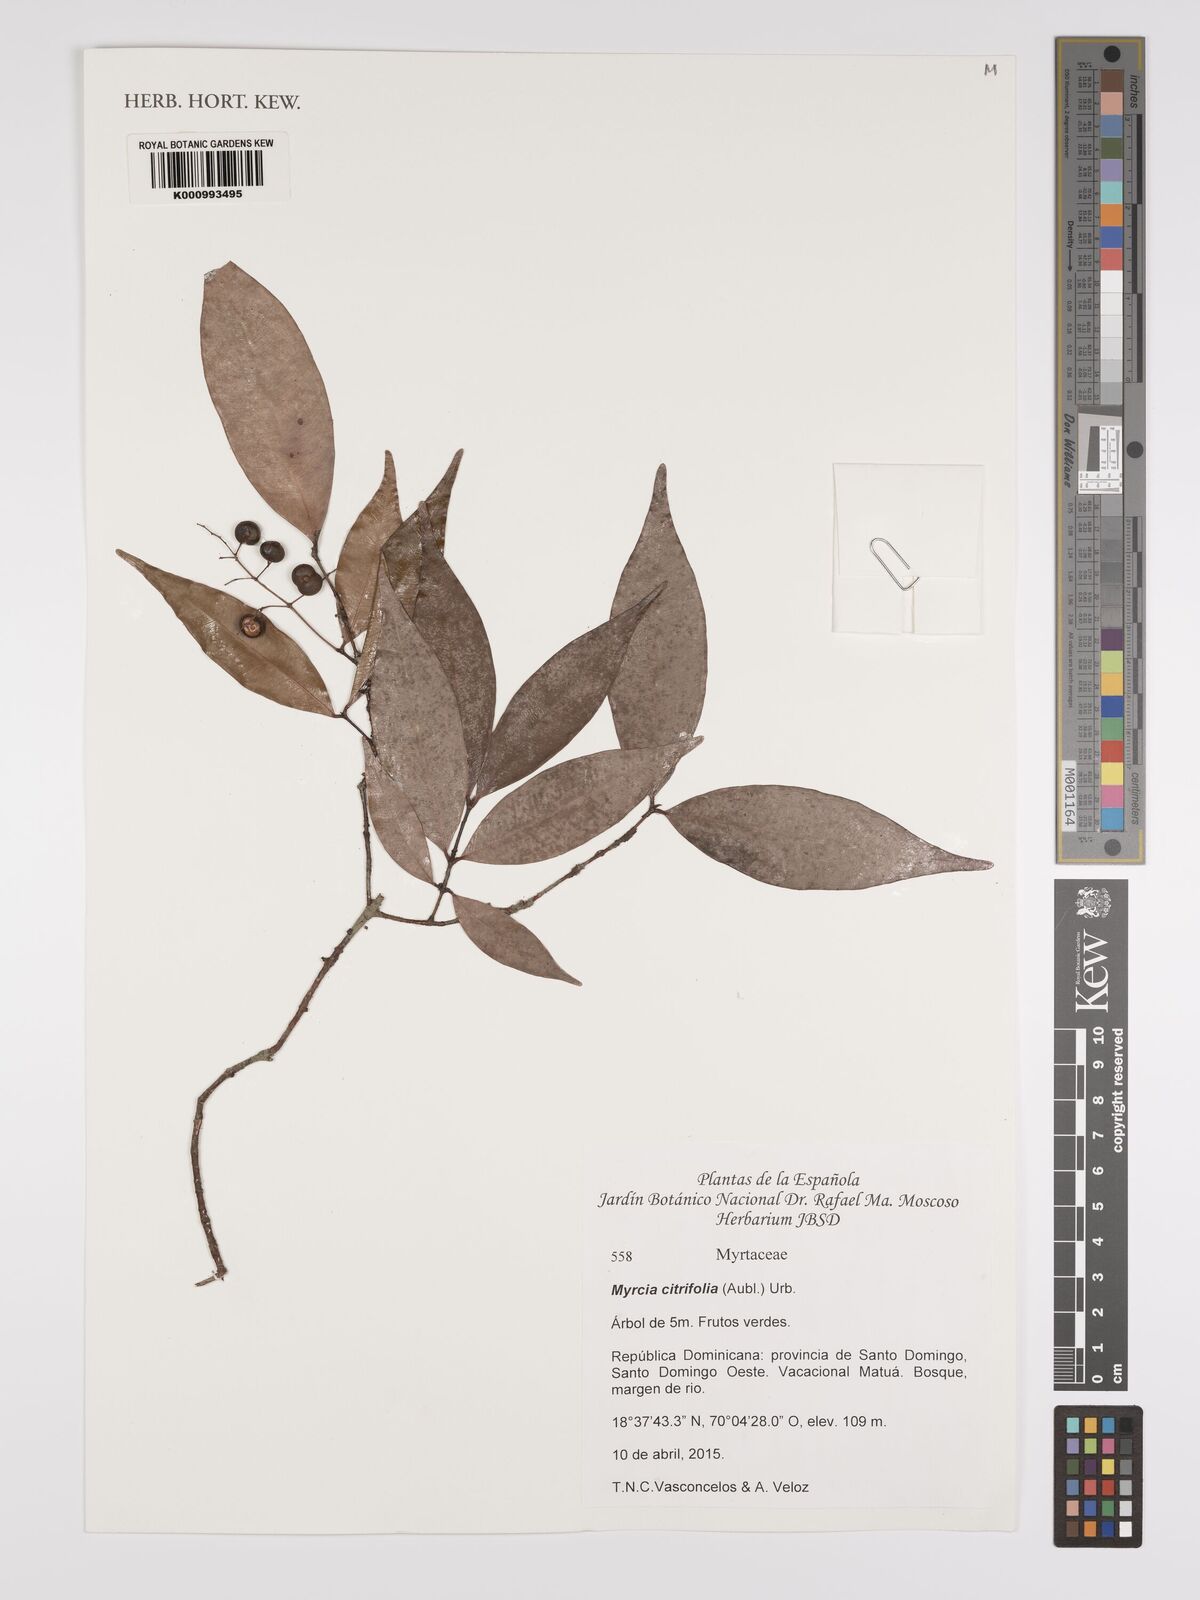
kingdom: Plantae
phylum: Tracheophyta
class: Magnoliopsida
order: Myrtales
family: Myrtaceae
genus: Myrcia
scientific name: Myrcia guianensis
